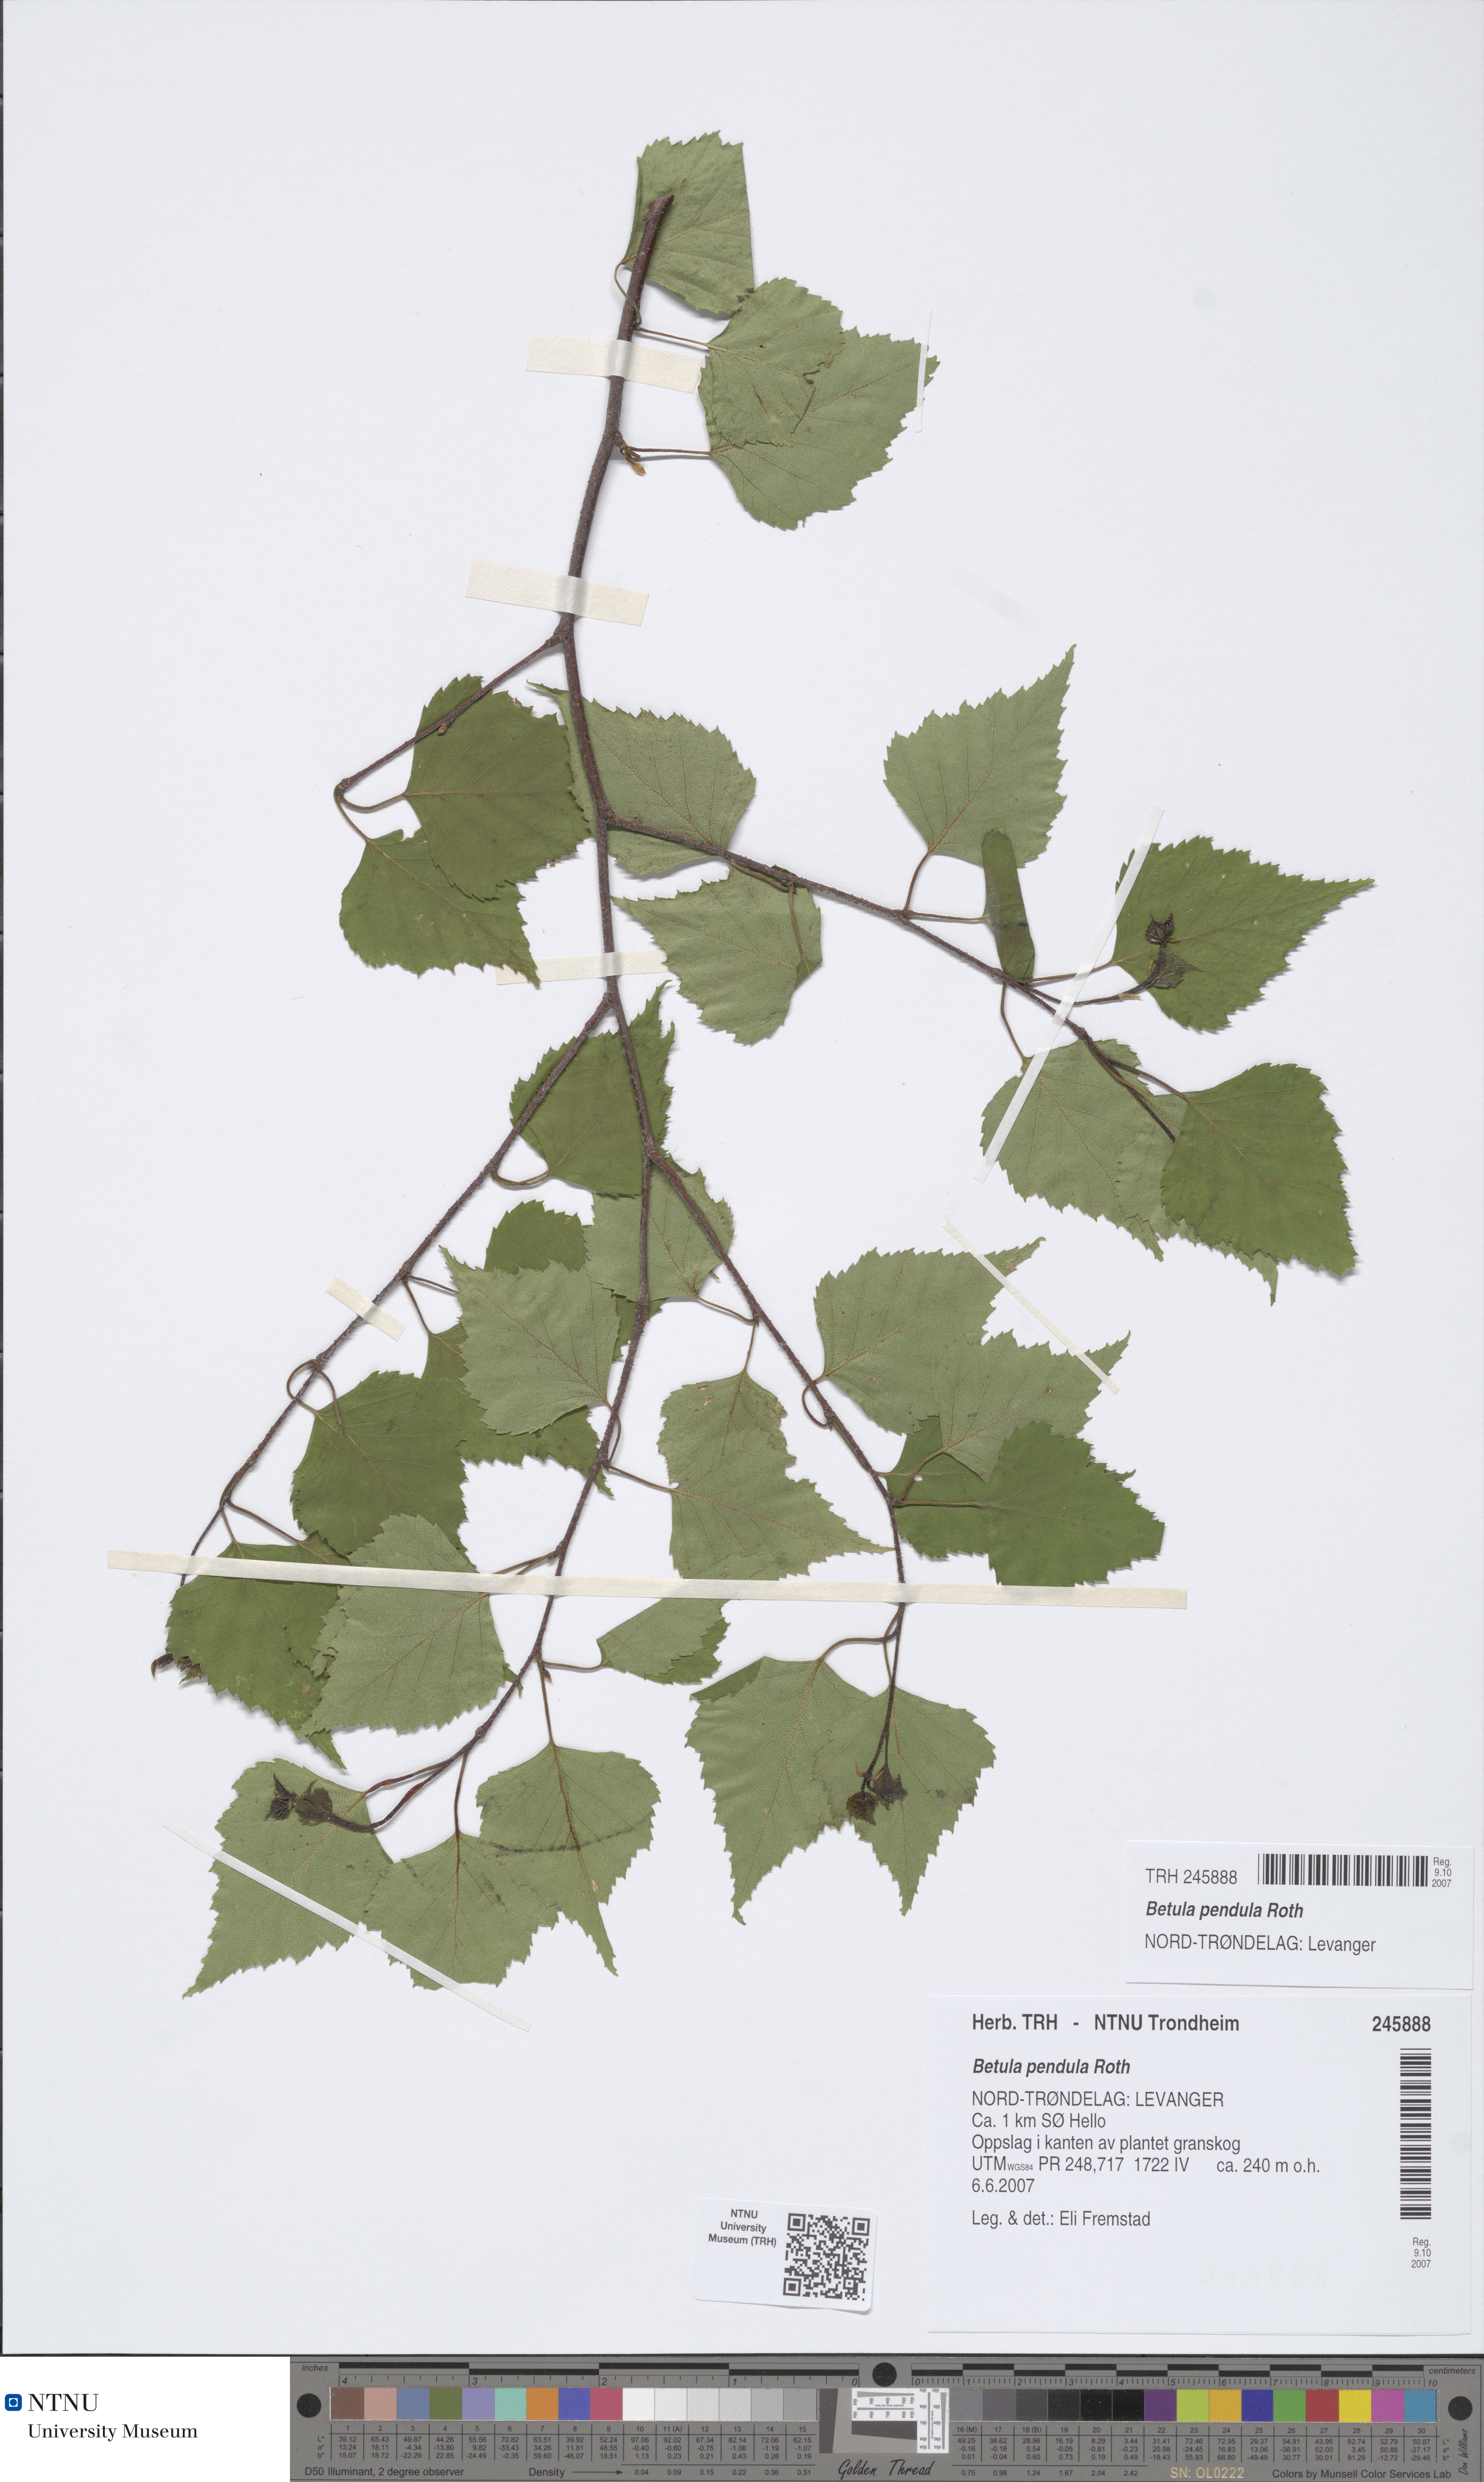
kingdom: Plantae
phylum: Tracheophyta
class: Magnoliopsida
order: Fagales
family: Betulaceae
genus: Betula
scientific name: Betula pendula
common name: Silver birch
